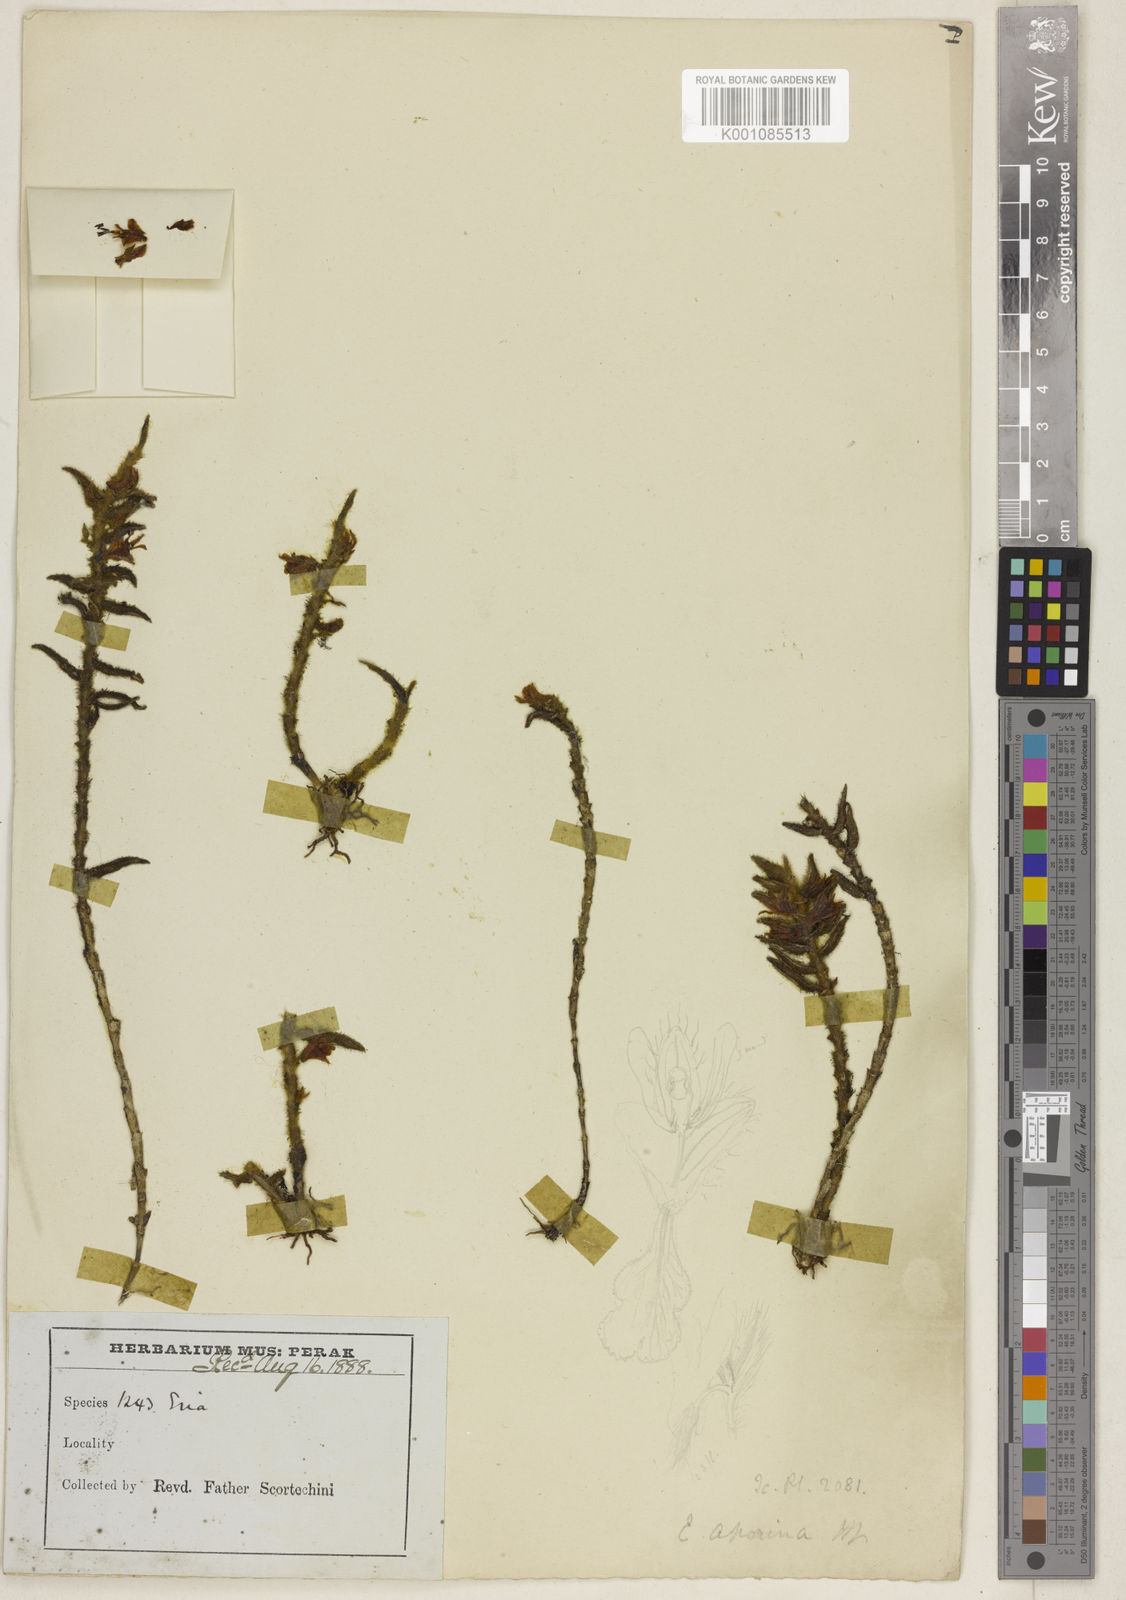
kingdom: Plantae
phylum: Tracheophyta
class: Liliopsida
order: Asparagales
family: Orchidaceae
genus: Trichotosia
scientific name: Trichotosia aporina
